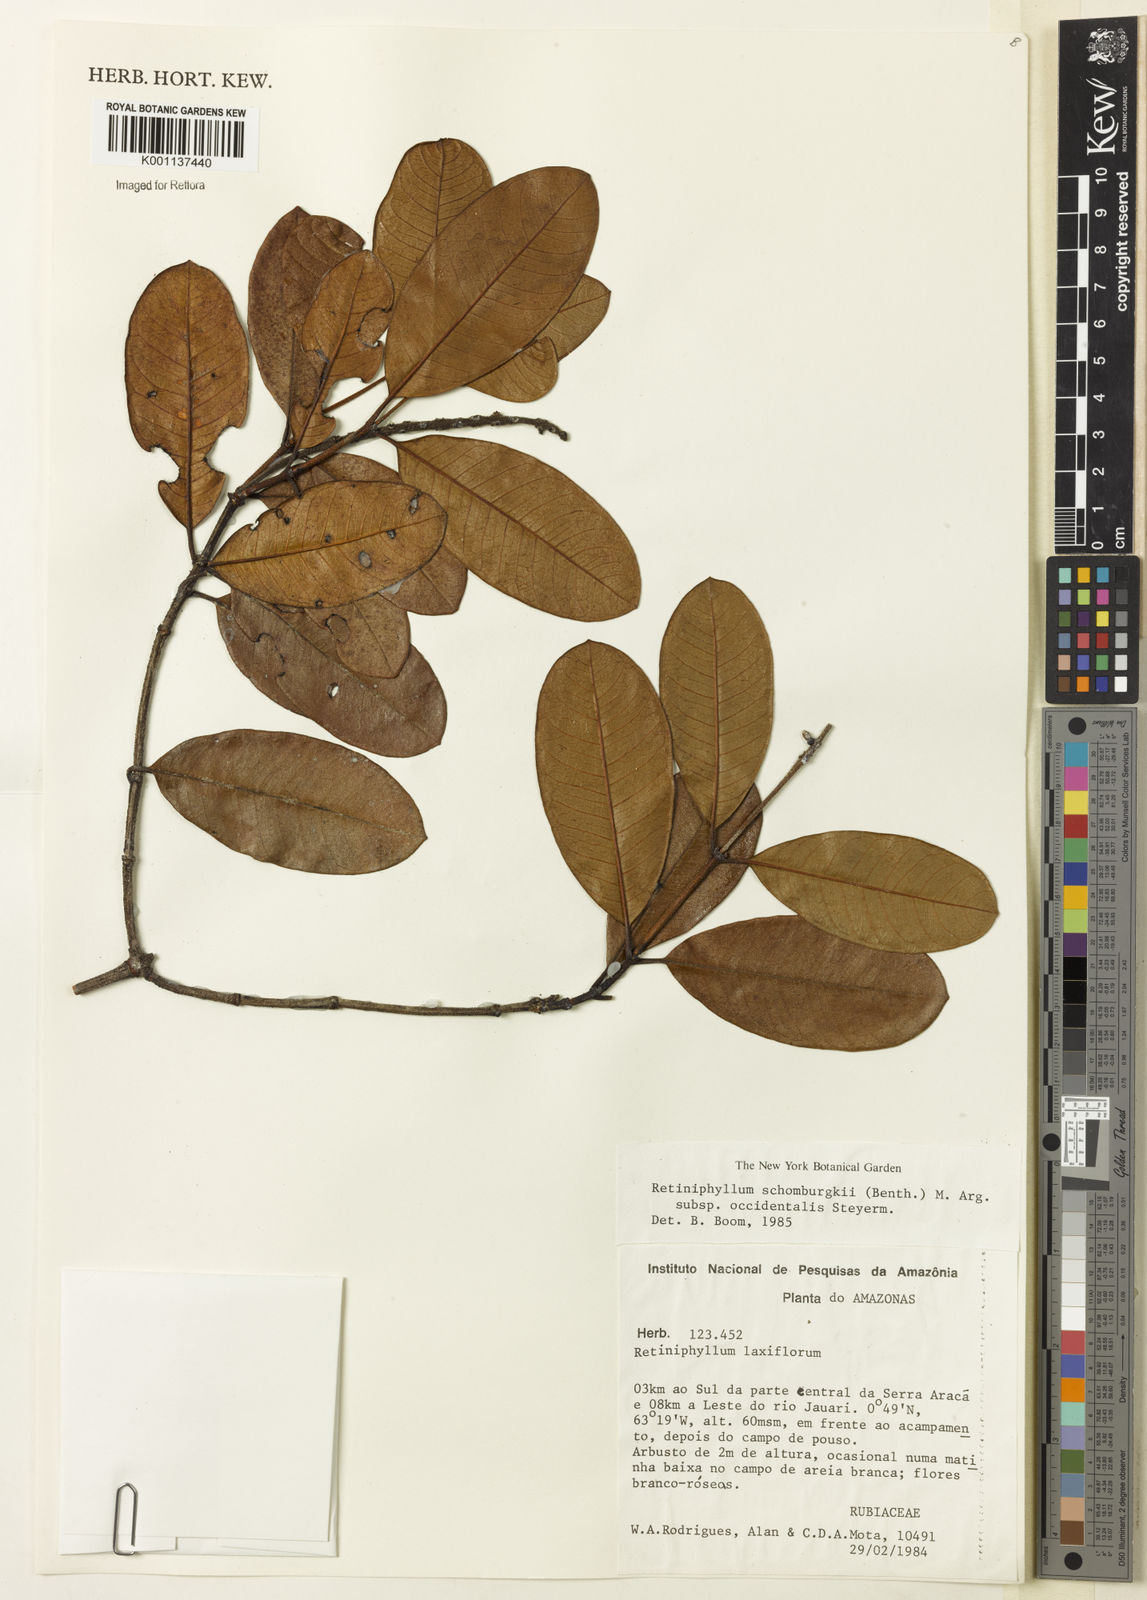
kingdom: Plantae
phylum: Tracheophyta
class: Magnoliopsida
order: Gentianales
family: Rubiaceae
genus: Retiniphyllum
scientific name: Retiniphyllum
